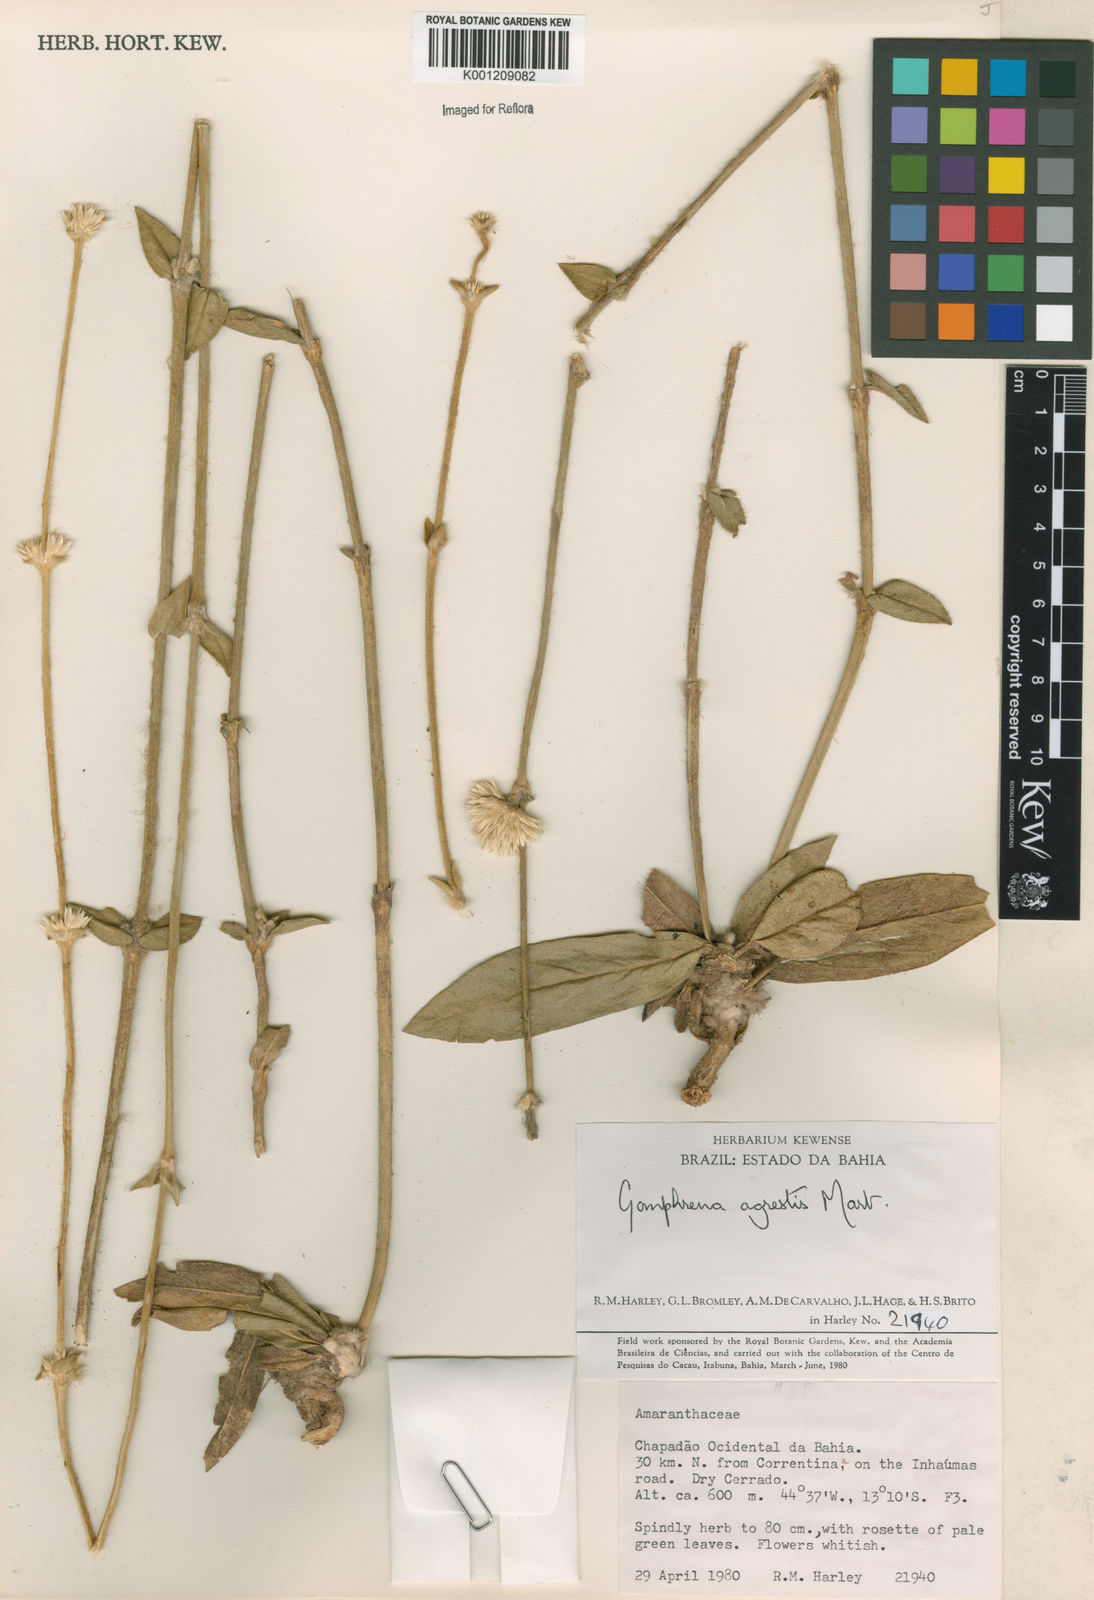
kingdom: Plantae
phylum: Tracheophyta
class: Magnoliopsida
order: Caryophyllales
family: Amaranthaceae
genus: Gomphrena
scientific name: Gomphrena agrestis
